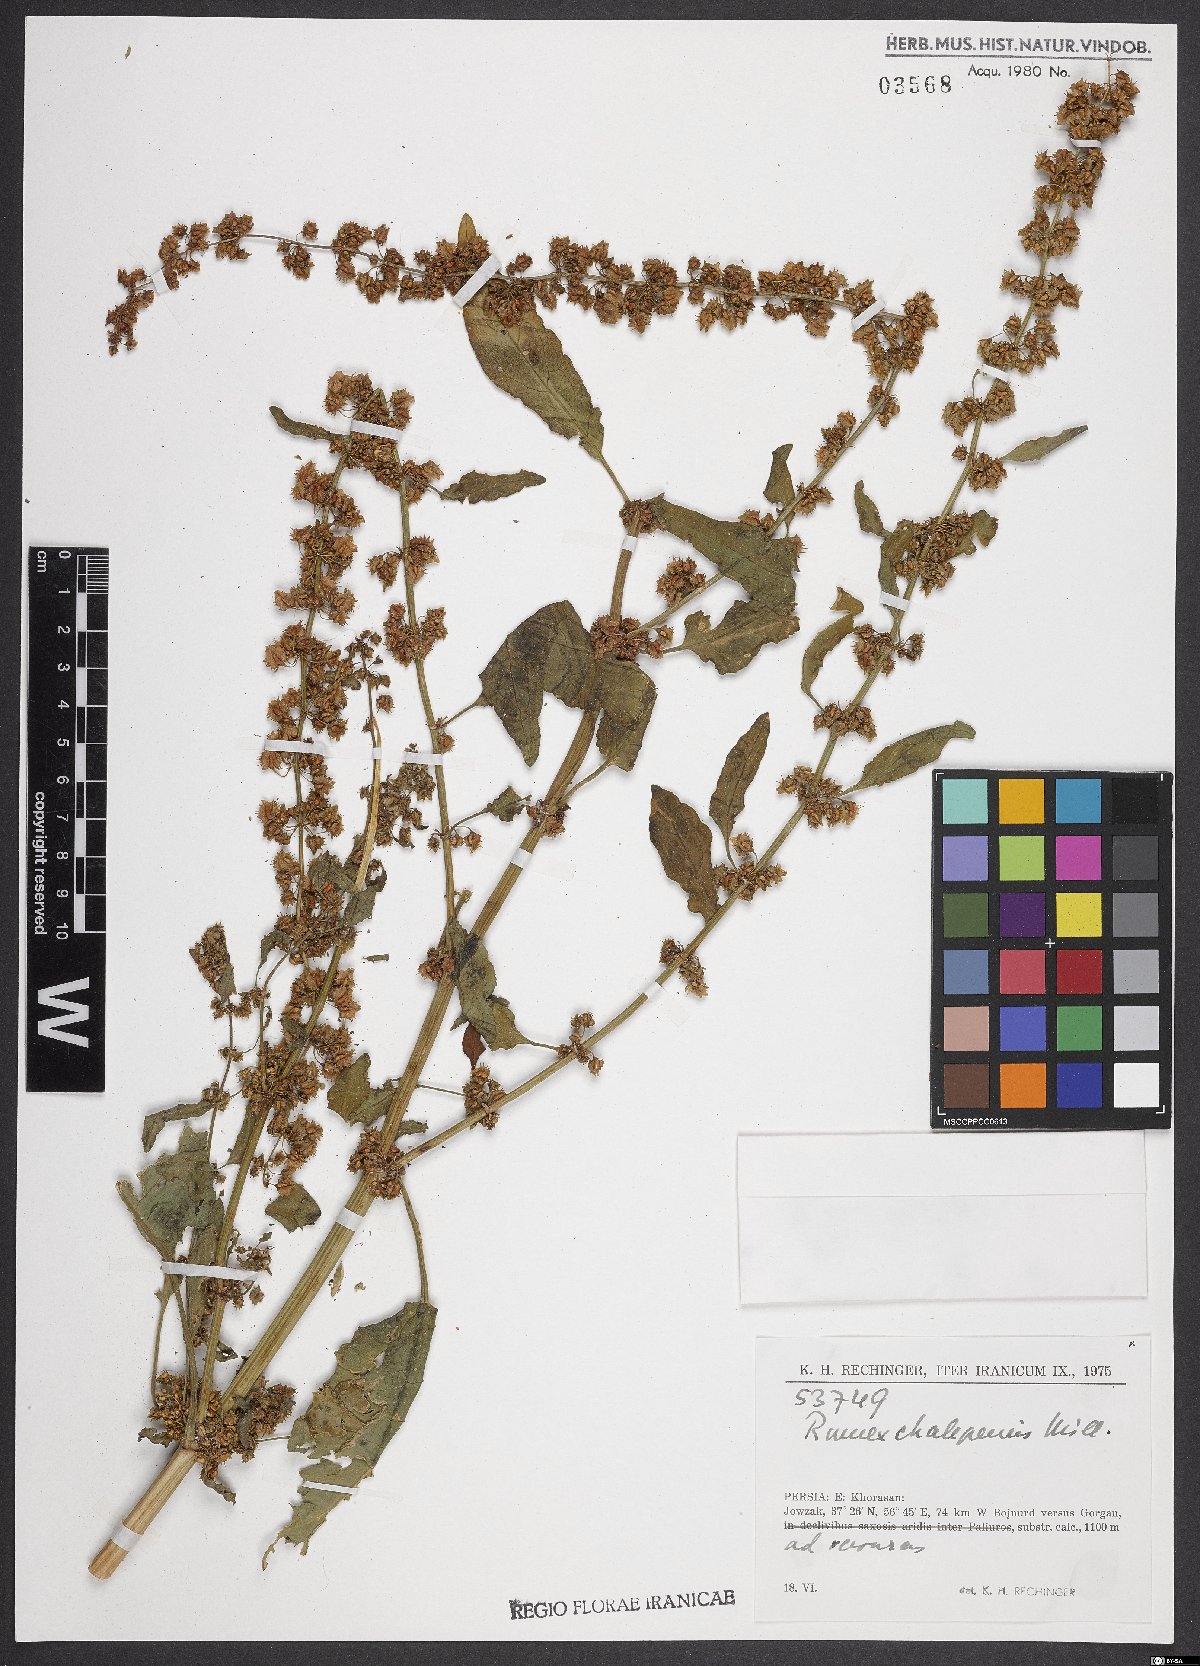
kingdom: Plantae
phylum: Tracheophyta
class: Magnoliopsida
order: Caryophyllales
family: Polygonaceae
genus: Rumex
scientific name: Rumex chalepensis
